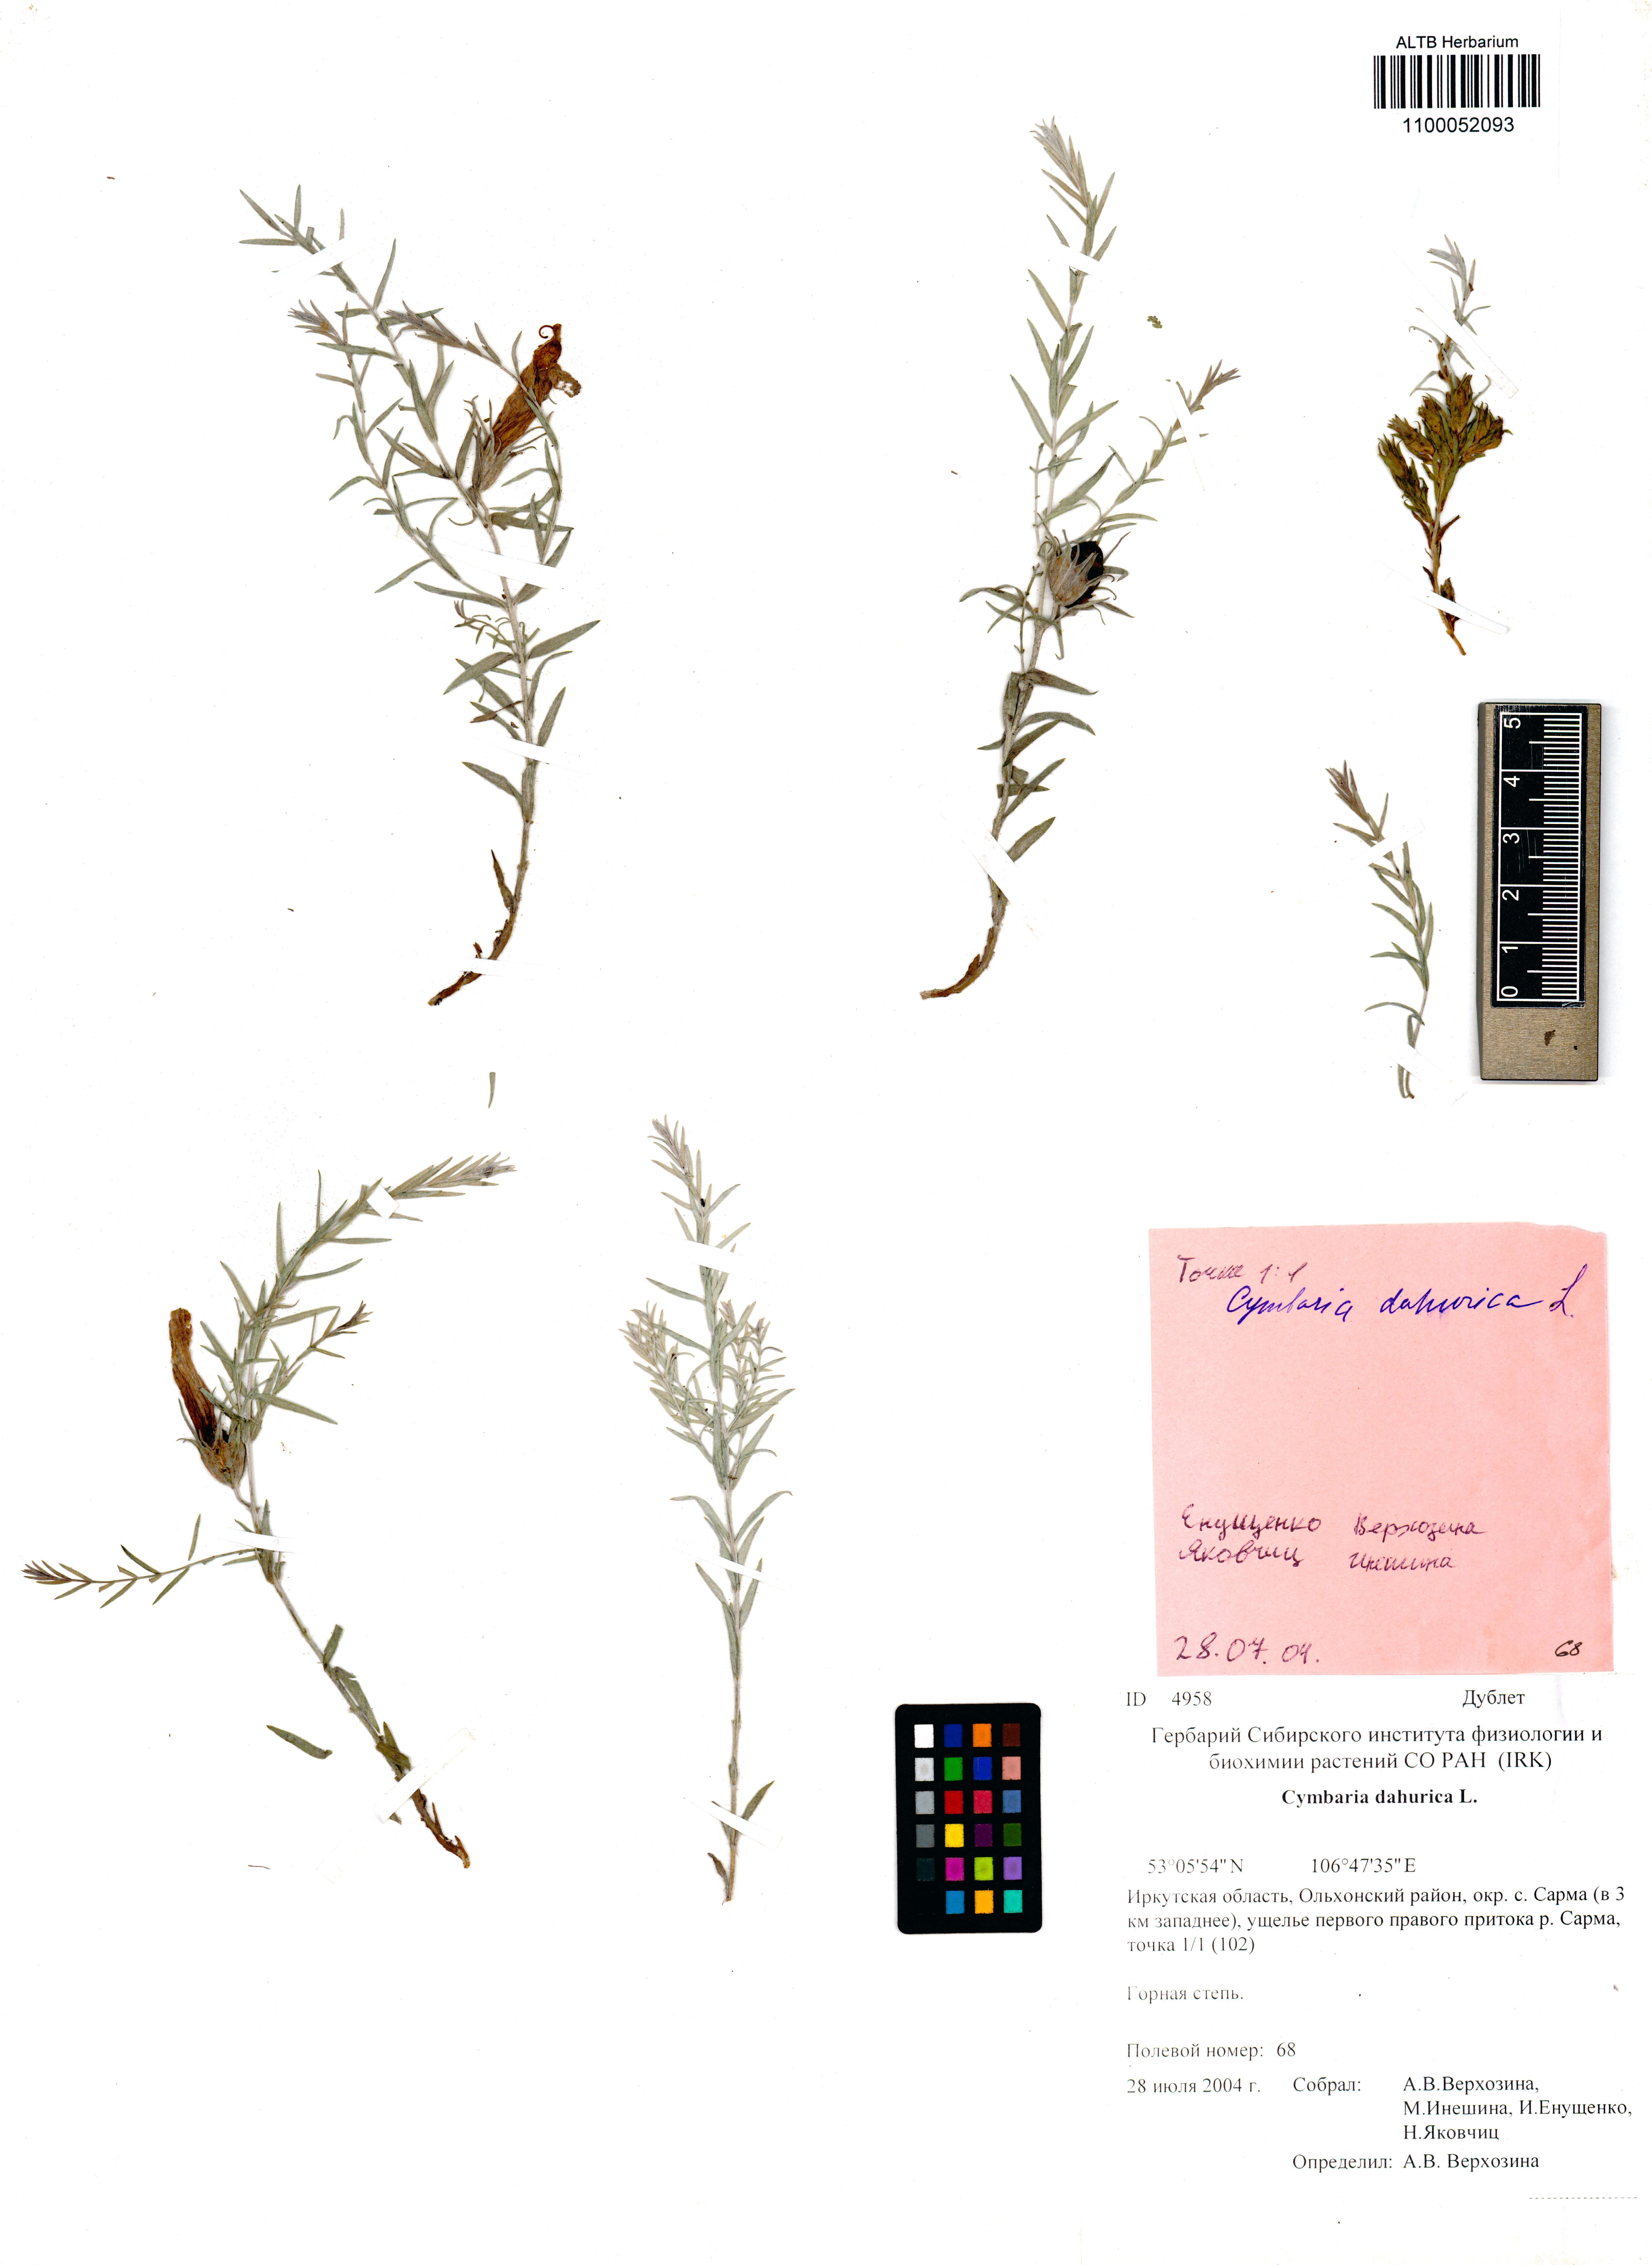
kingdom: Plantae
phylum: Tracheophyta
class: Magnoliopsida
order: Lamiales
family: Orobanchaceae
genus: Cymbaria
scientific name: Cymbaria daurica
